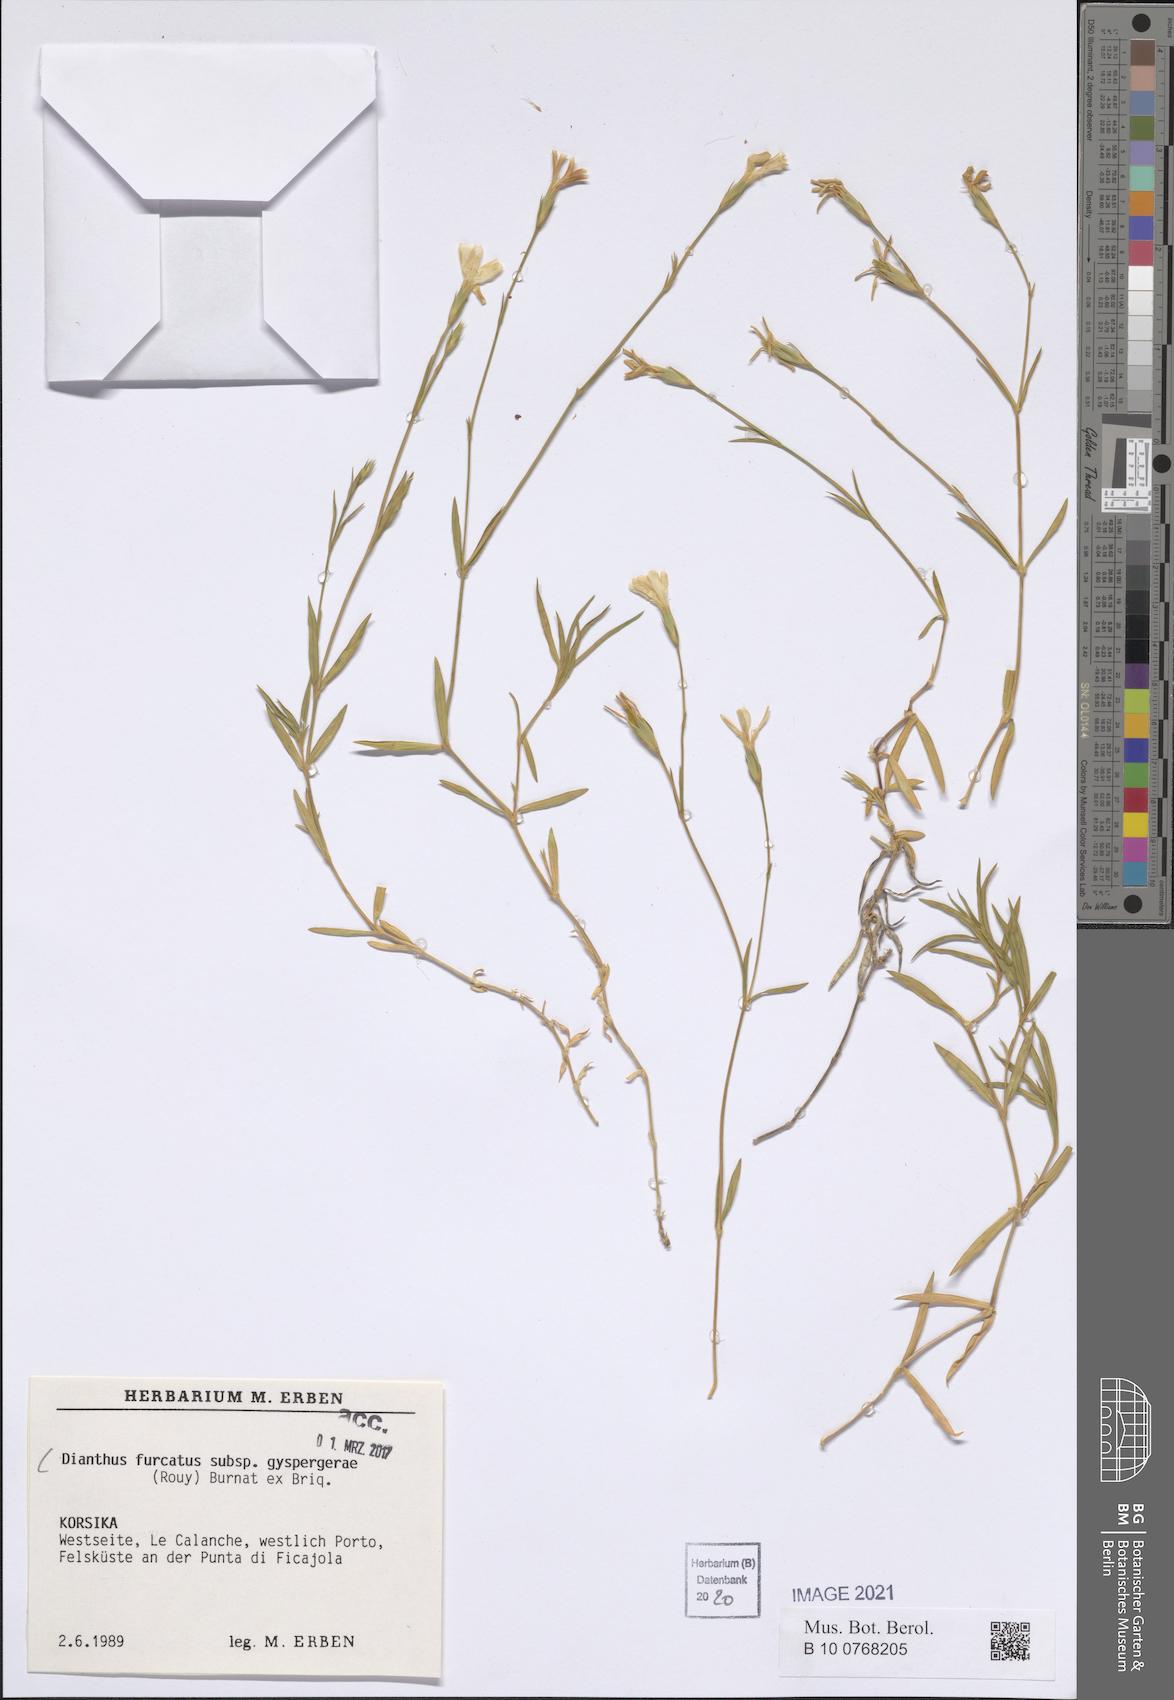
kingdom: Plantae
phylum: Tracheophyta
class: Magnoliopsida
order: Caryophyllales
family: Caryophyllaceae
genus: Dianthus
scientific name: Dianthus furcatus
